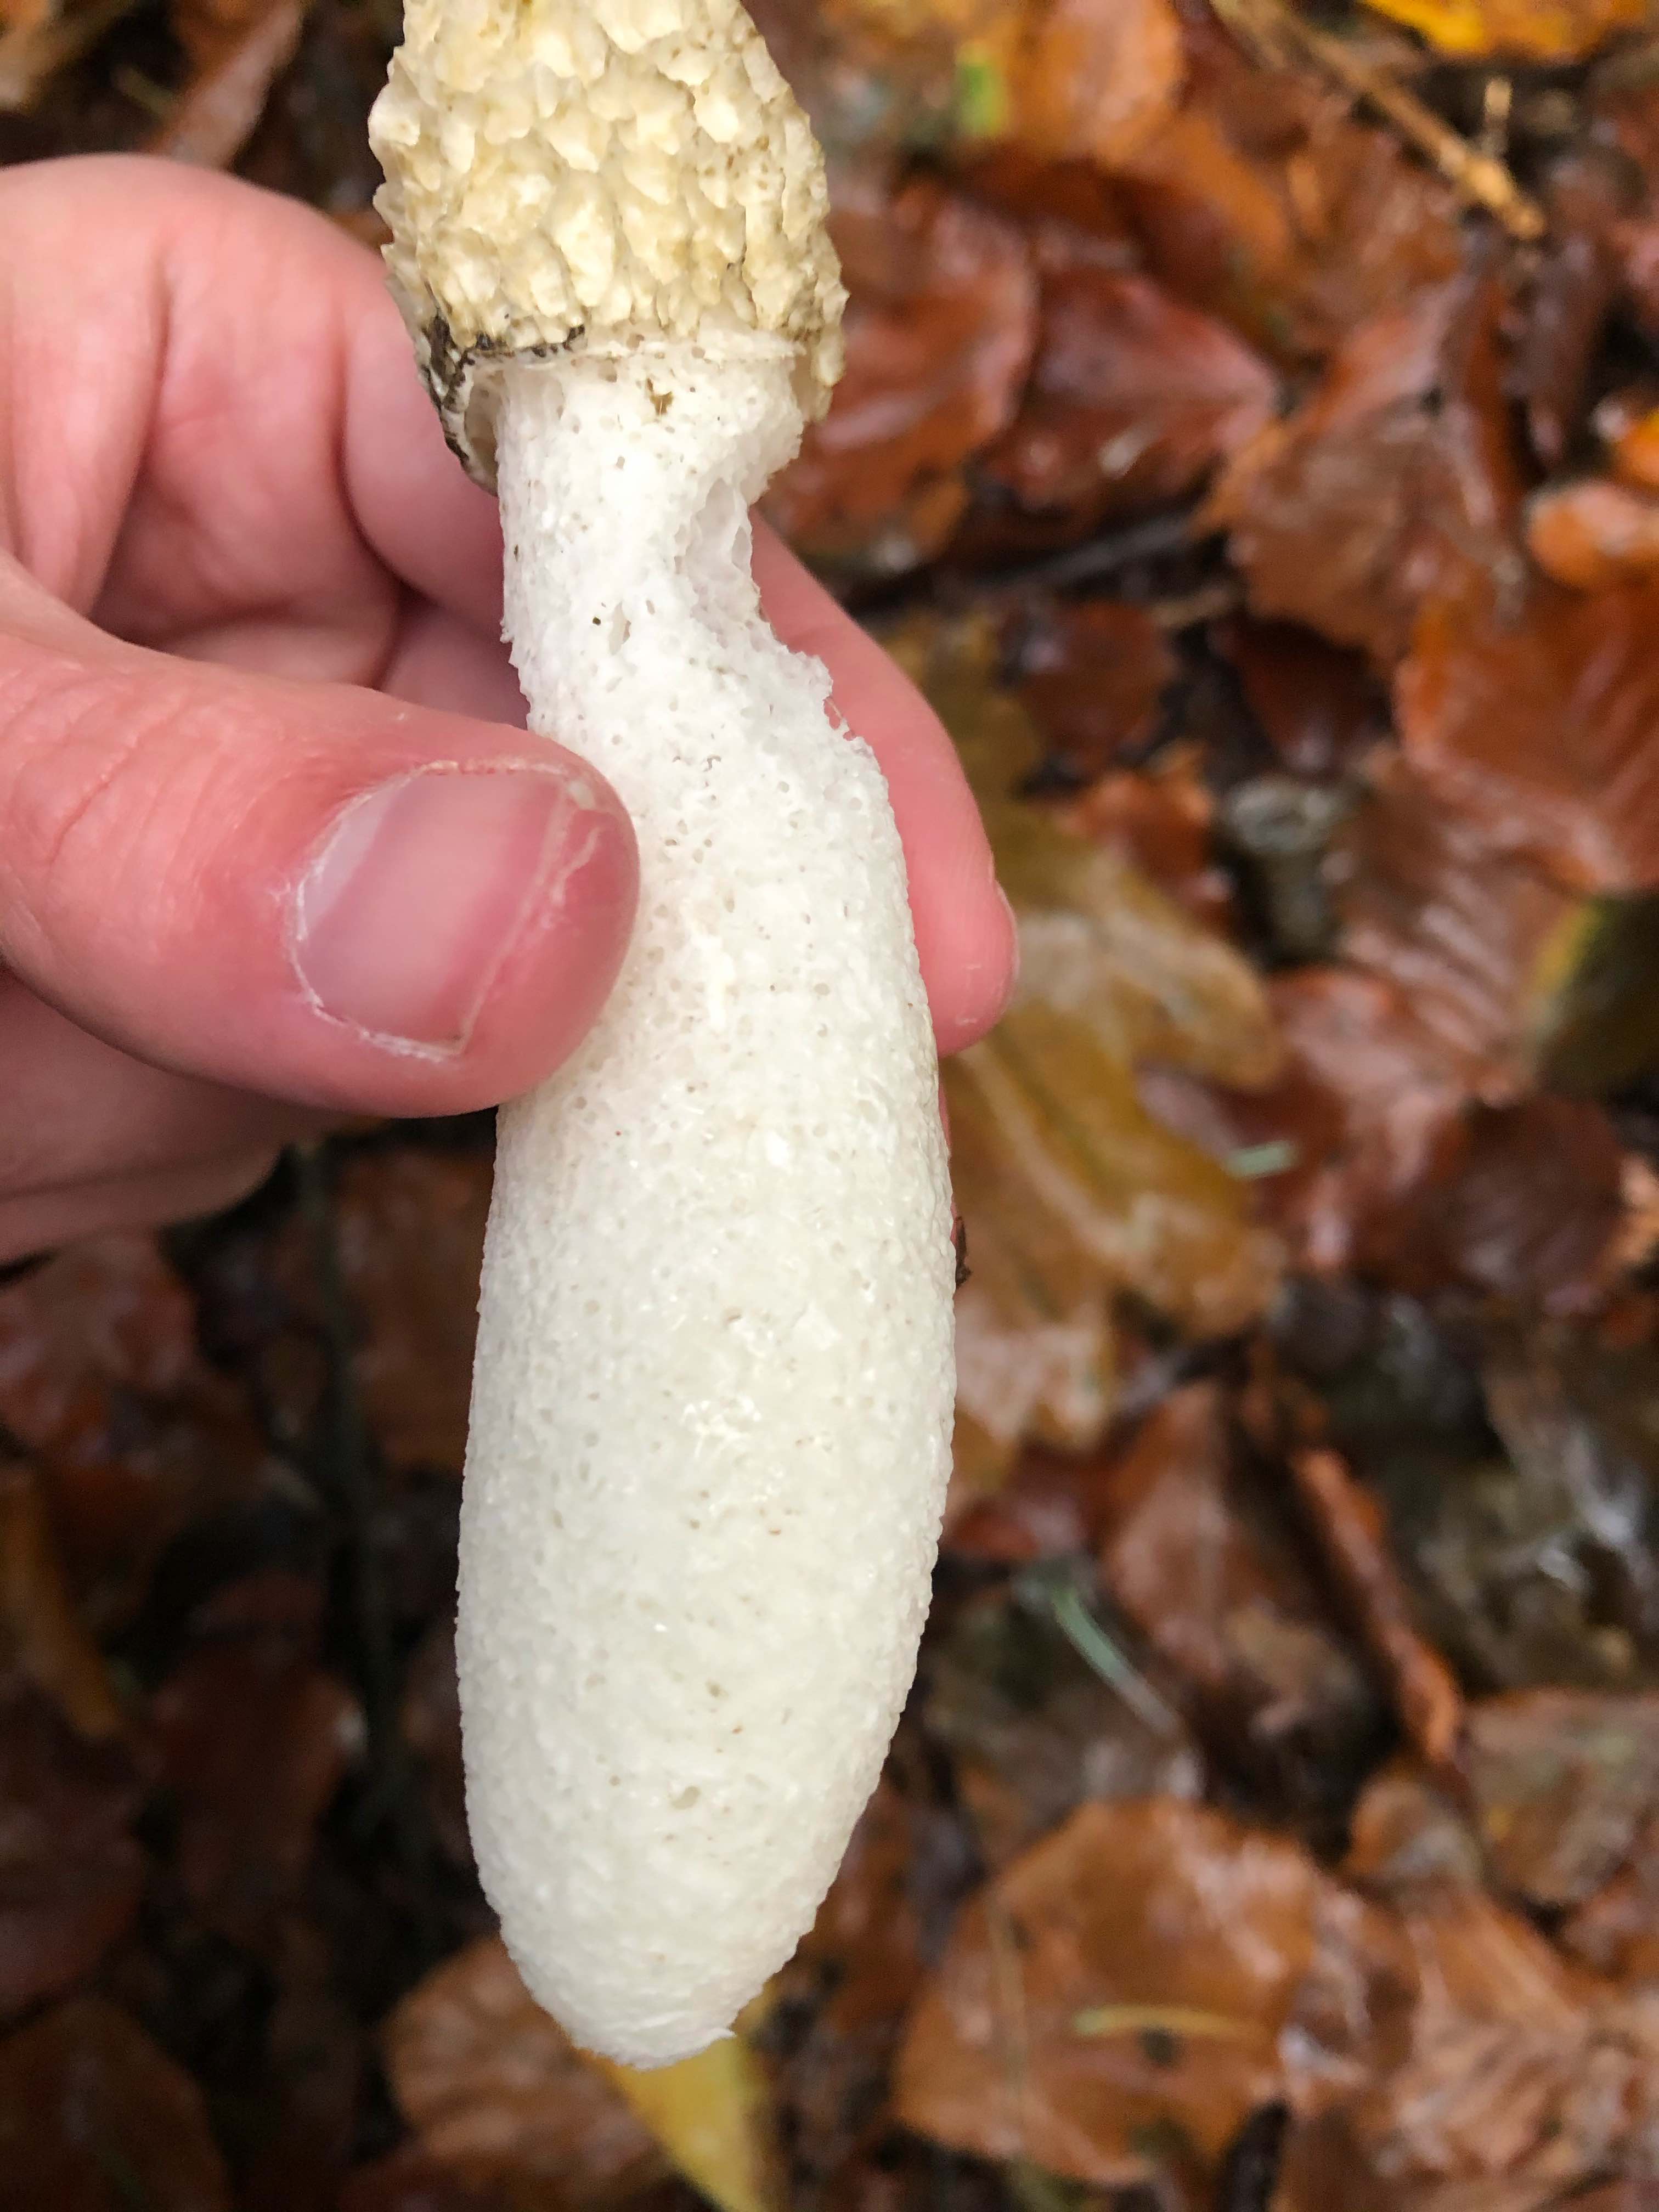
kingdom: Fungi
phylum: Basidiomycota
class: Agaricomycetes
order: Phallales
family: Phallaceae
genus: Phallus
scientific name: Phallus impudicus
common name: almindelig stinksvamp
